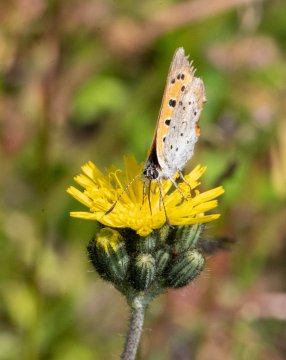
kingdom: Animalia
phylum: Arthropoda
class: Insecta
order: Lepidoptera
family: Lycaenidae
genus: Lycaena
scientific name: Lycaena phlaeas
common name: American Copper
